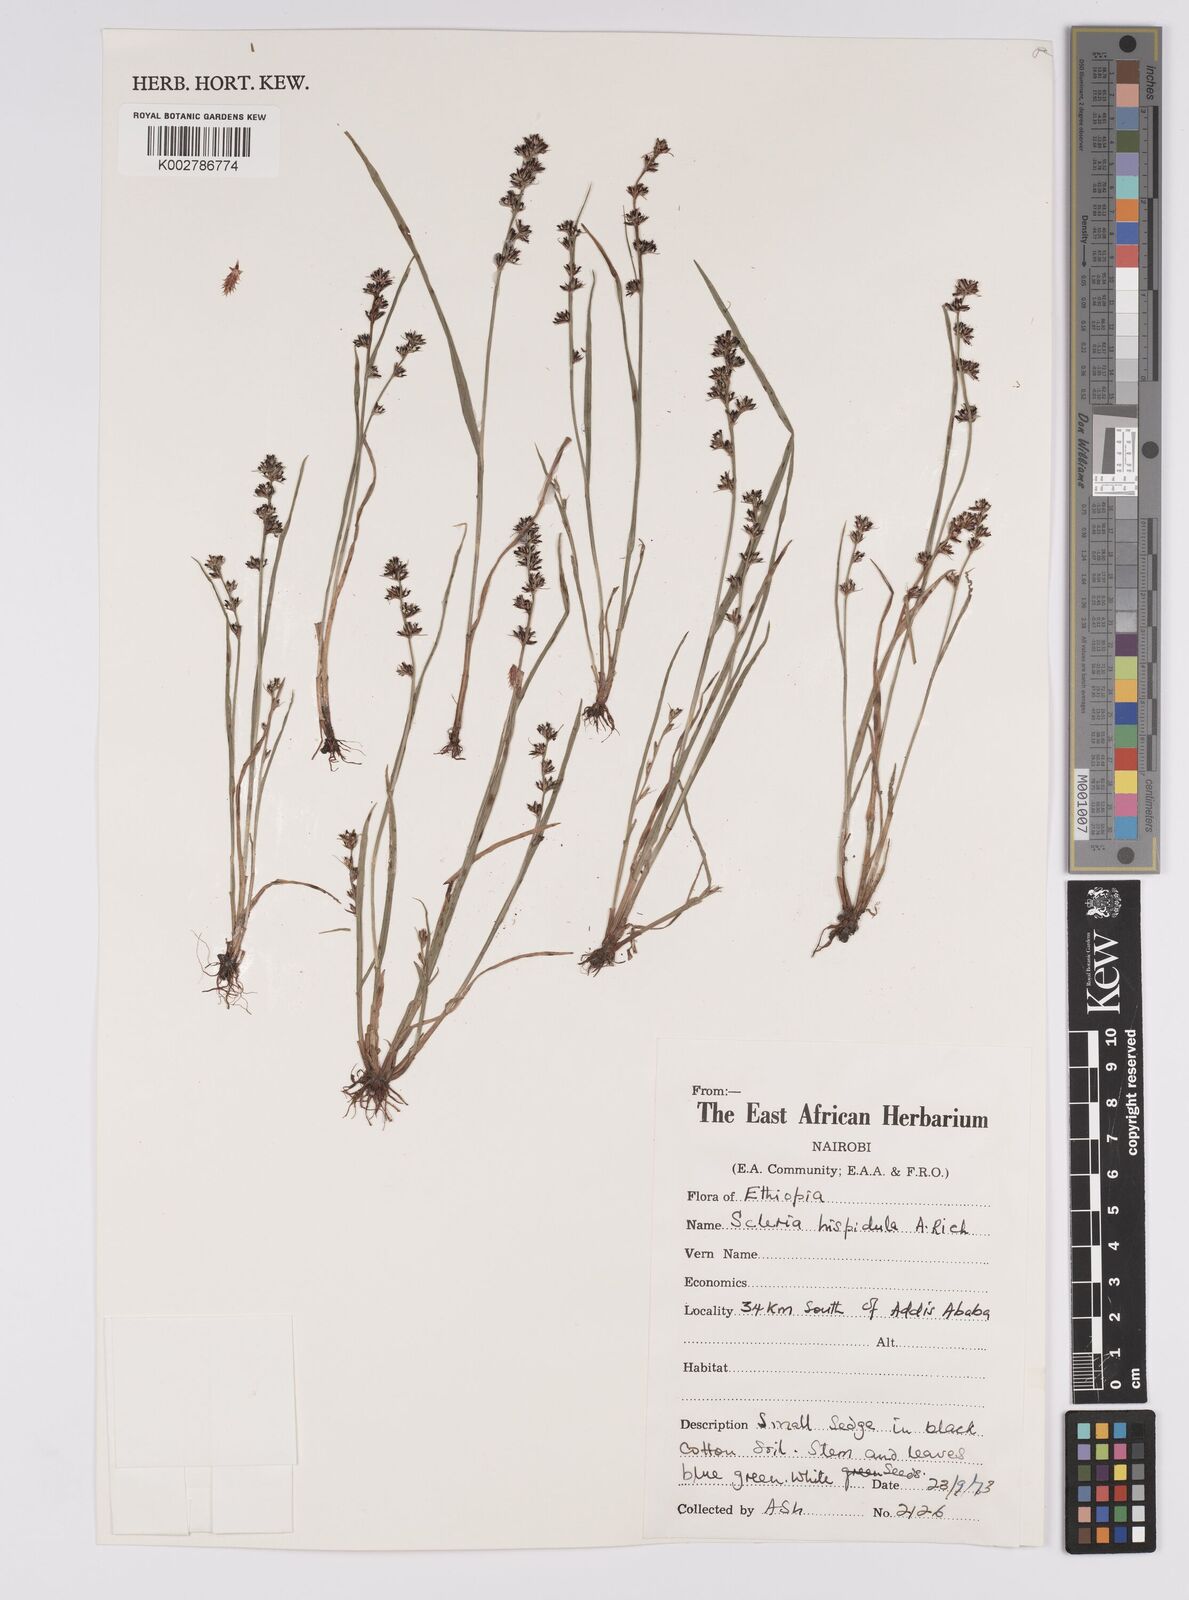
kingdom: Plantae
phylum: Tracheophyta
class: Liliopsida
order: Poales
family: Cyperaceae
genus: Scleria
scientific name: Scleria hispidula
